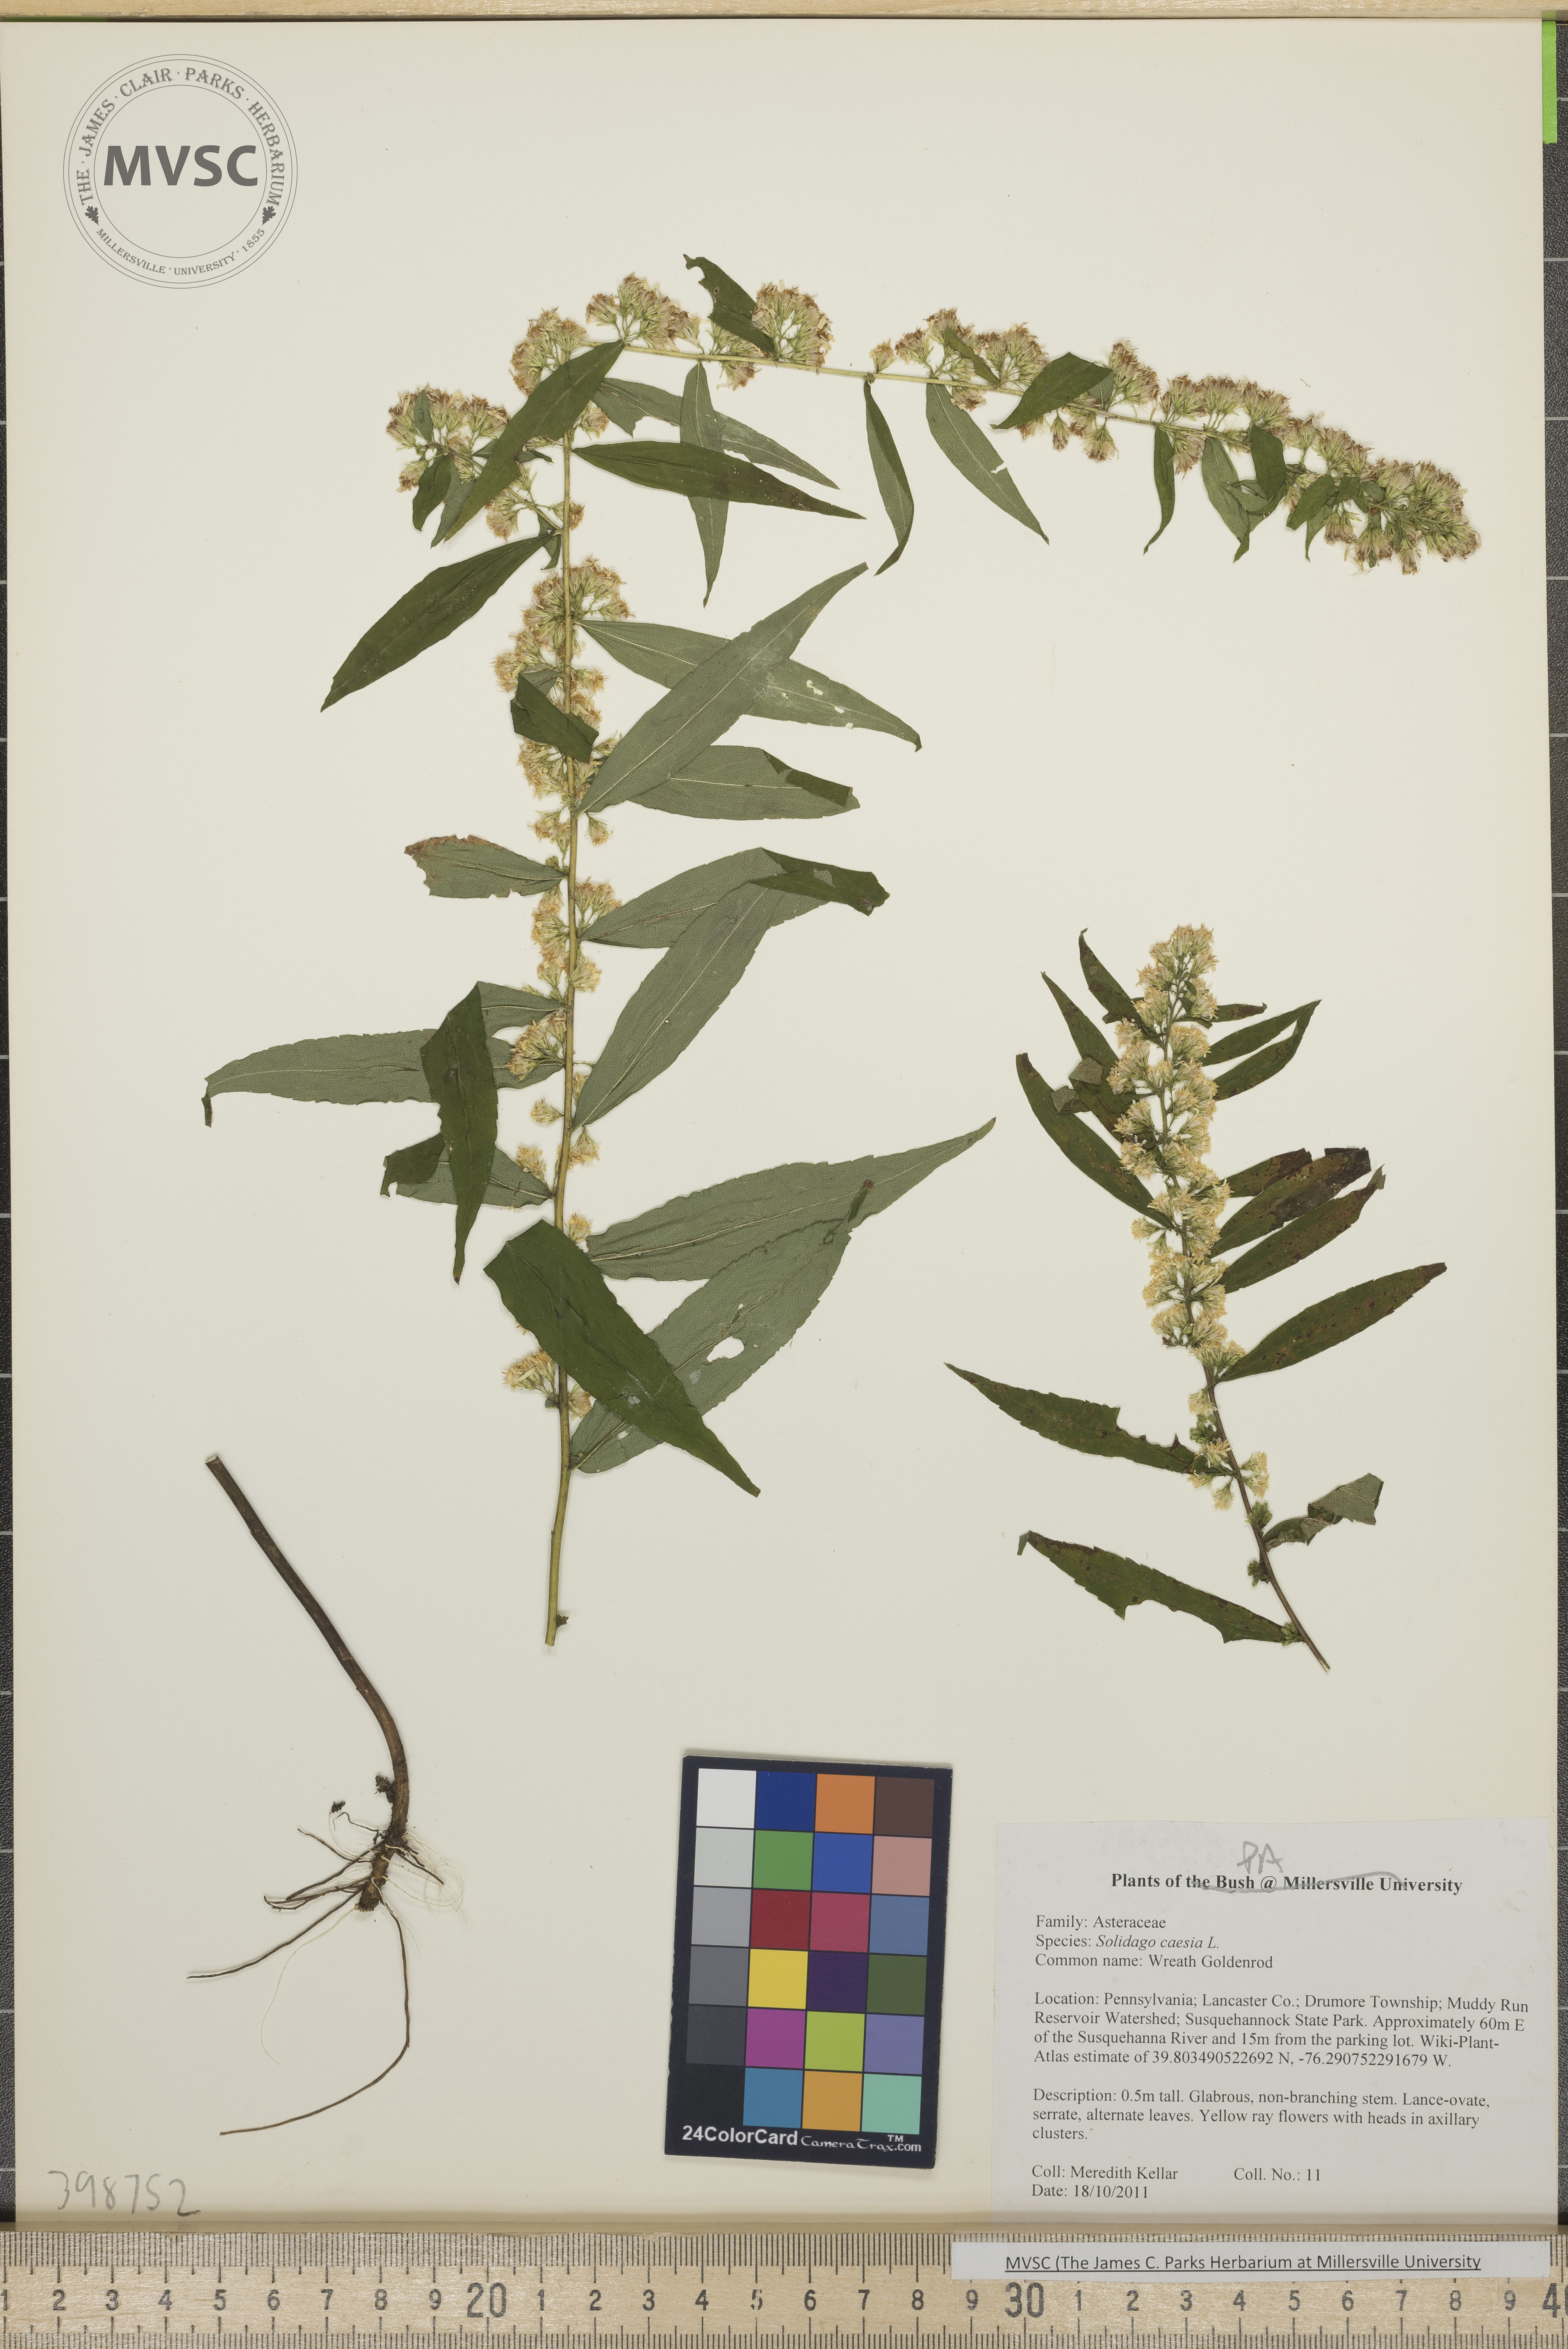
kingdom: Plantae
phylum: Tracheophyta
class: Magnoliopsida
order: Asterales
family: Asteraceae
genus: Solidago
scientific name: Solidago caesia
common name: Bluestem goldenrod
